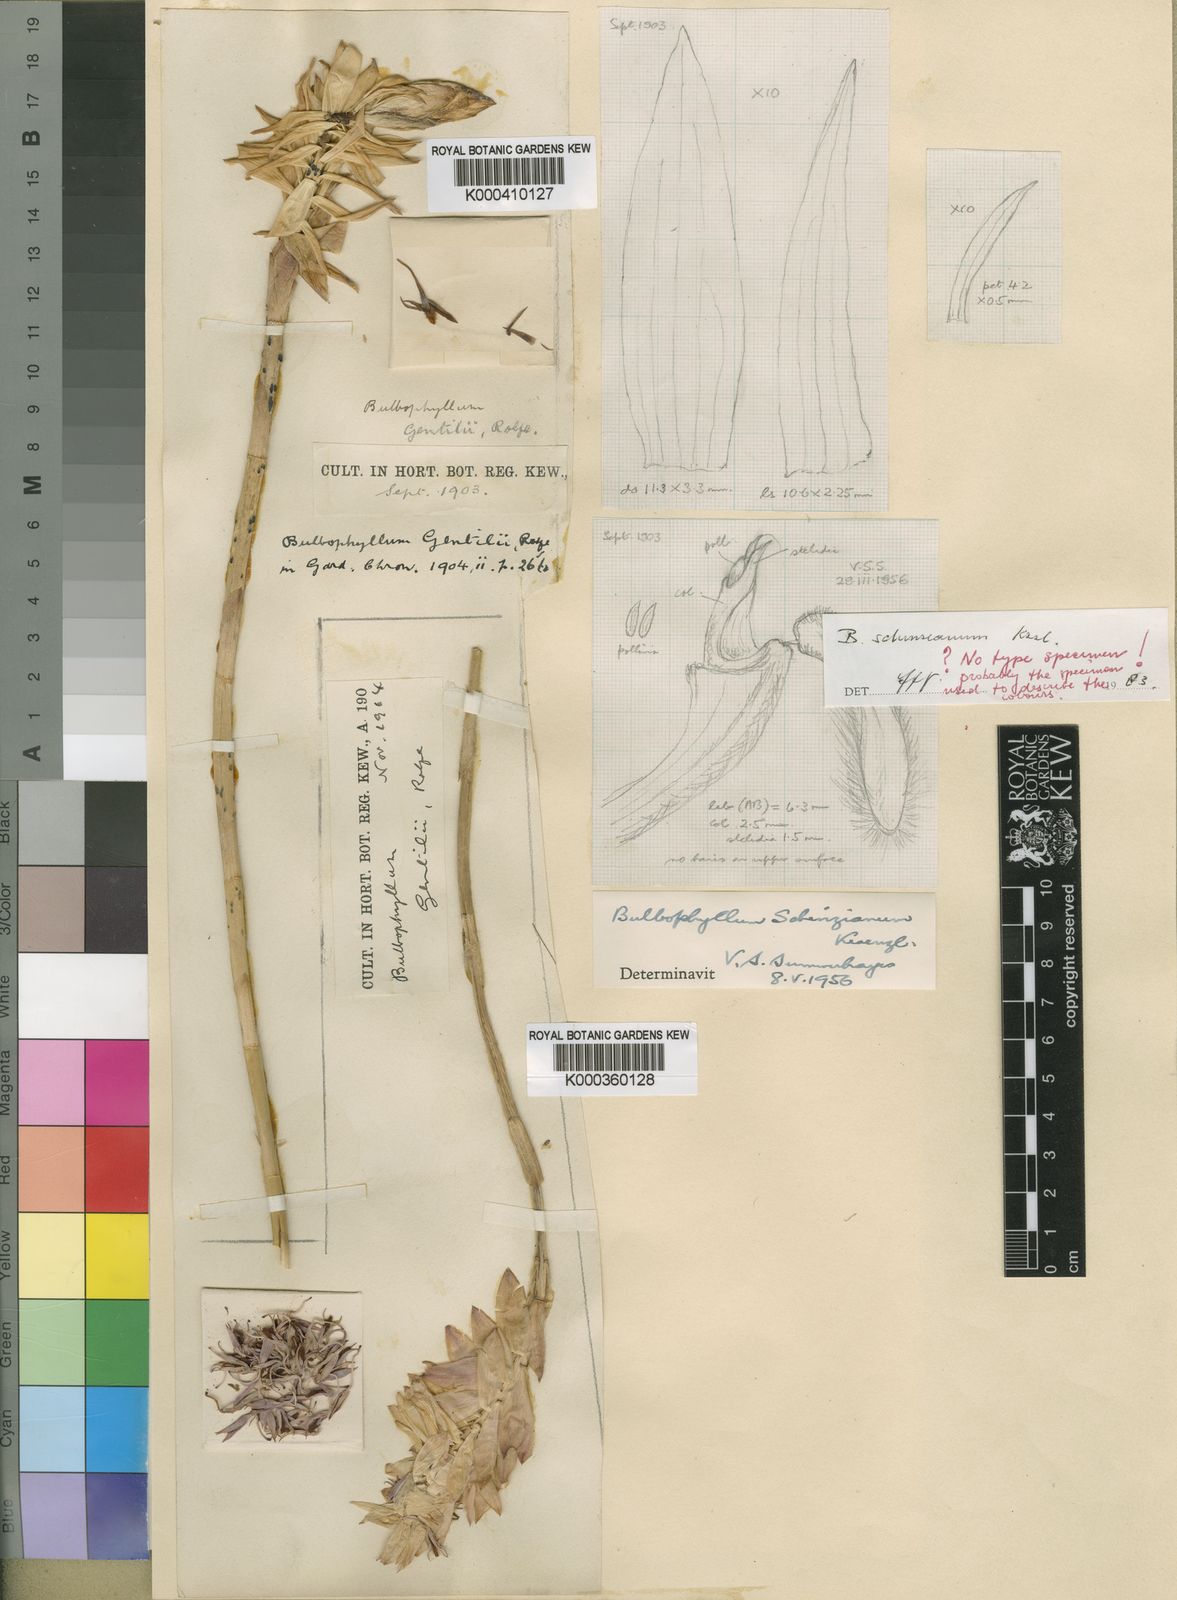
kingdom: Plantae
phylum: Tracheophyta
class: Liliopsida
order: Asparagales
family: Orchidaceae
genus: Bulbophyllum
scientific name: Bulbophyllum schinzianum
